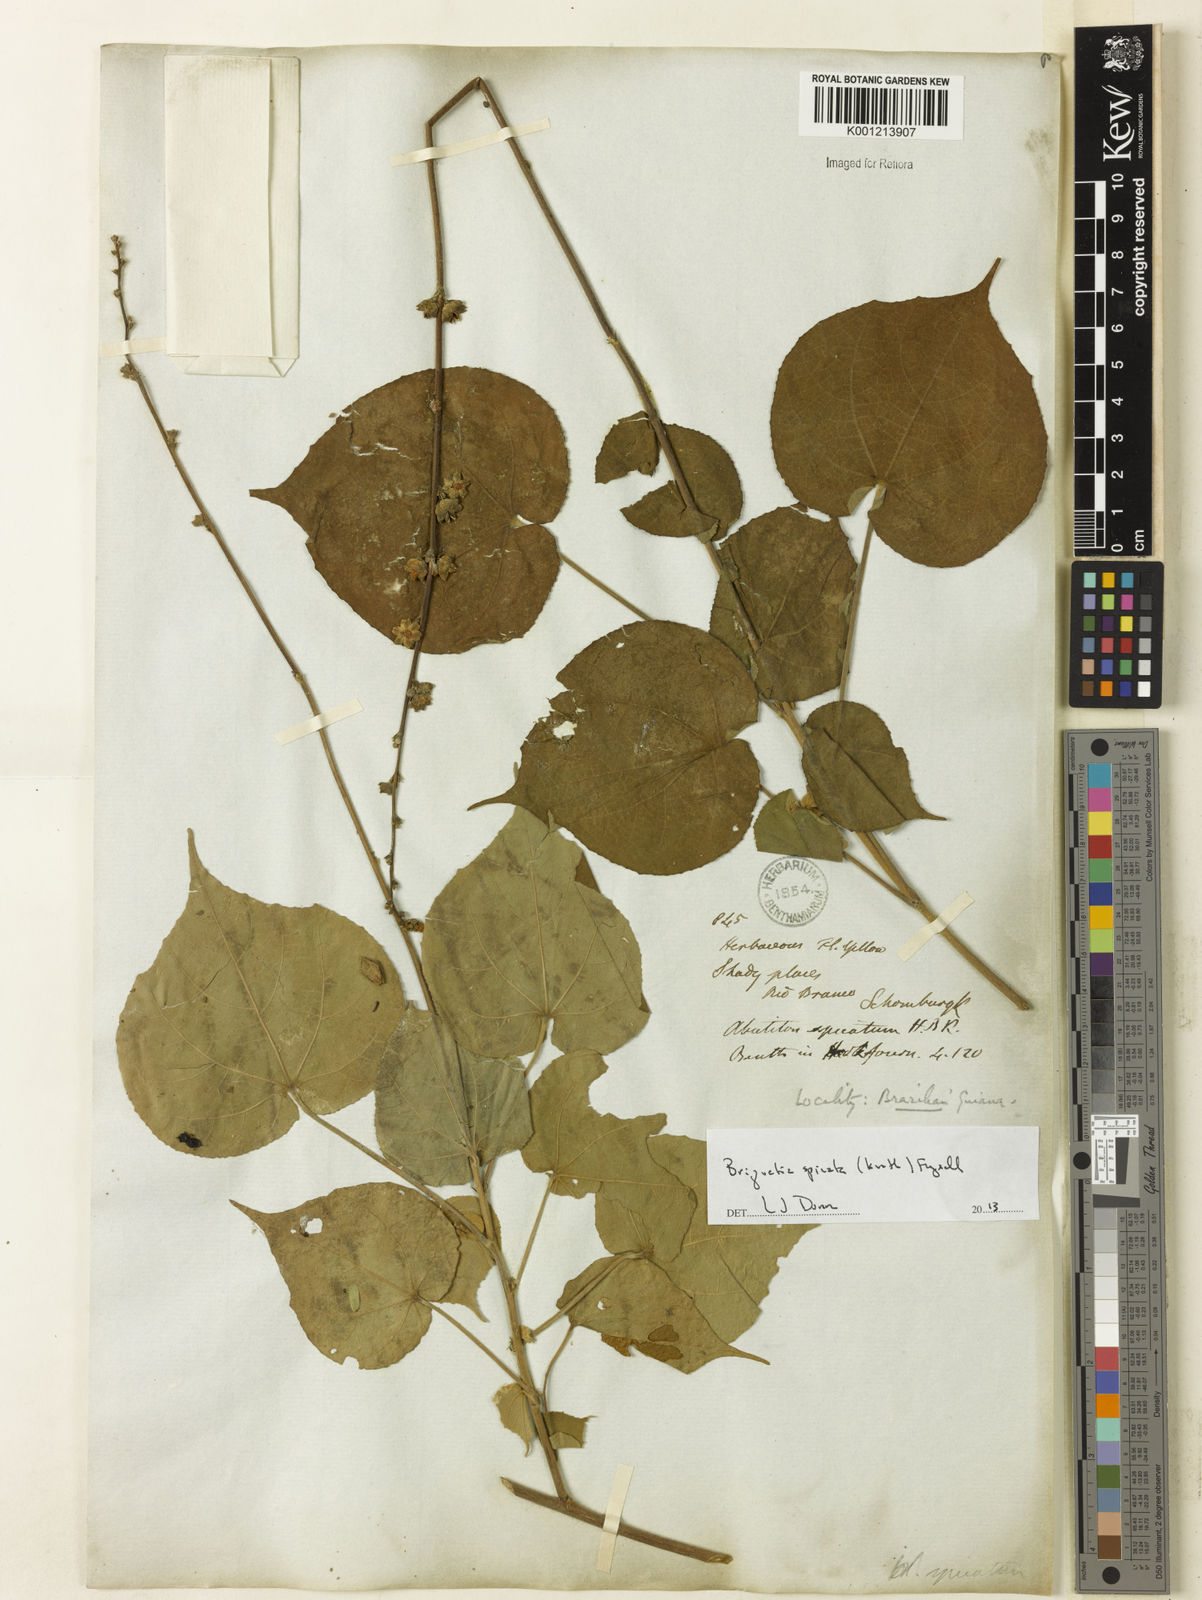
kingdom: Plantae
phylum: Tracheophyta
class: Magnoliopsida
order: Malvales
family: Malvaceae
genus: Allobriquetia
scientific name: Allobriquetia spicata
